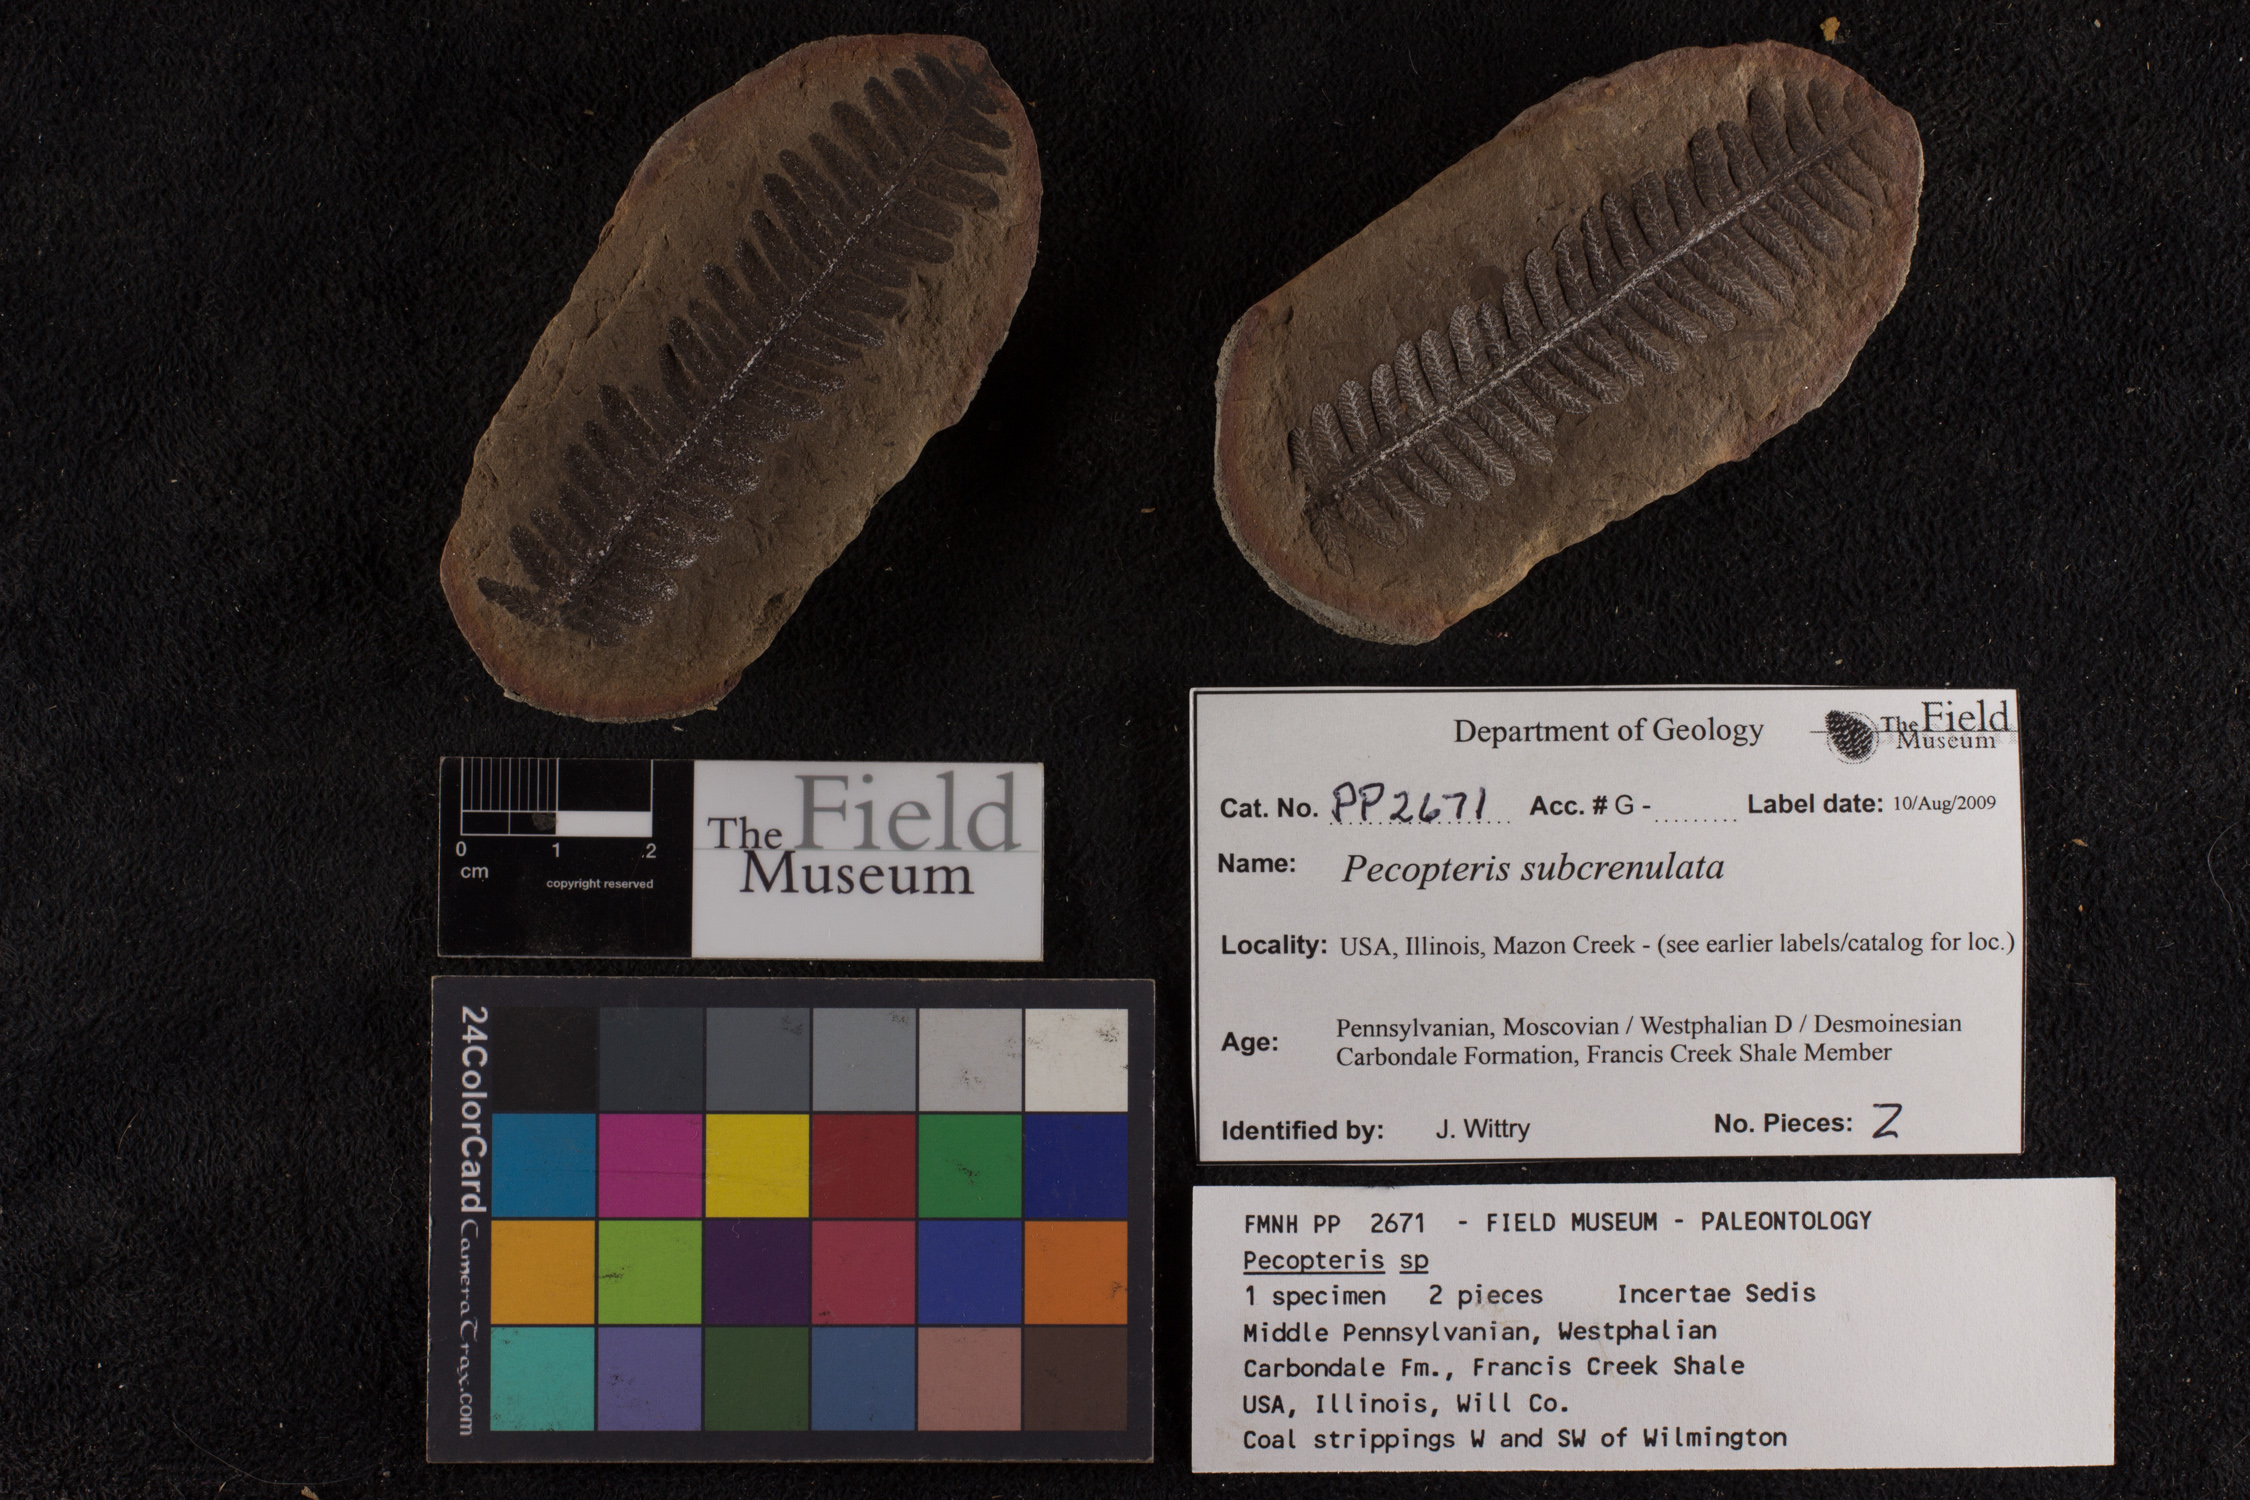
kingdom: Plantae
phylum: Tracheophyta
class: Polypodiopsida
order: Marattiales
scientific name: Marattiales
